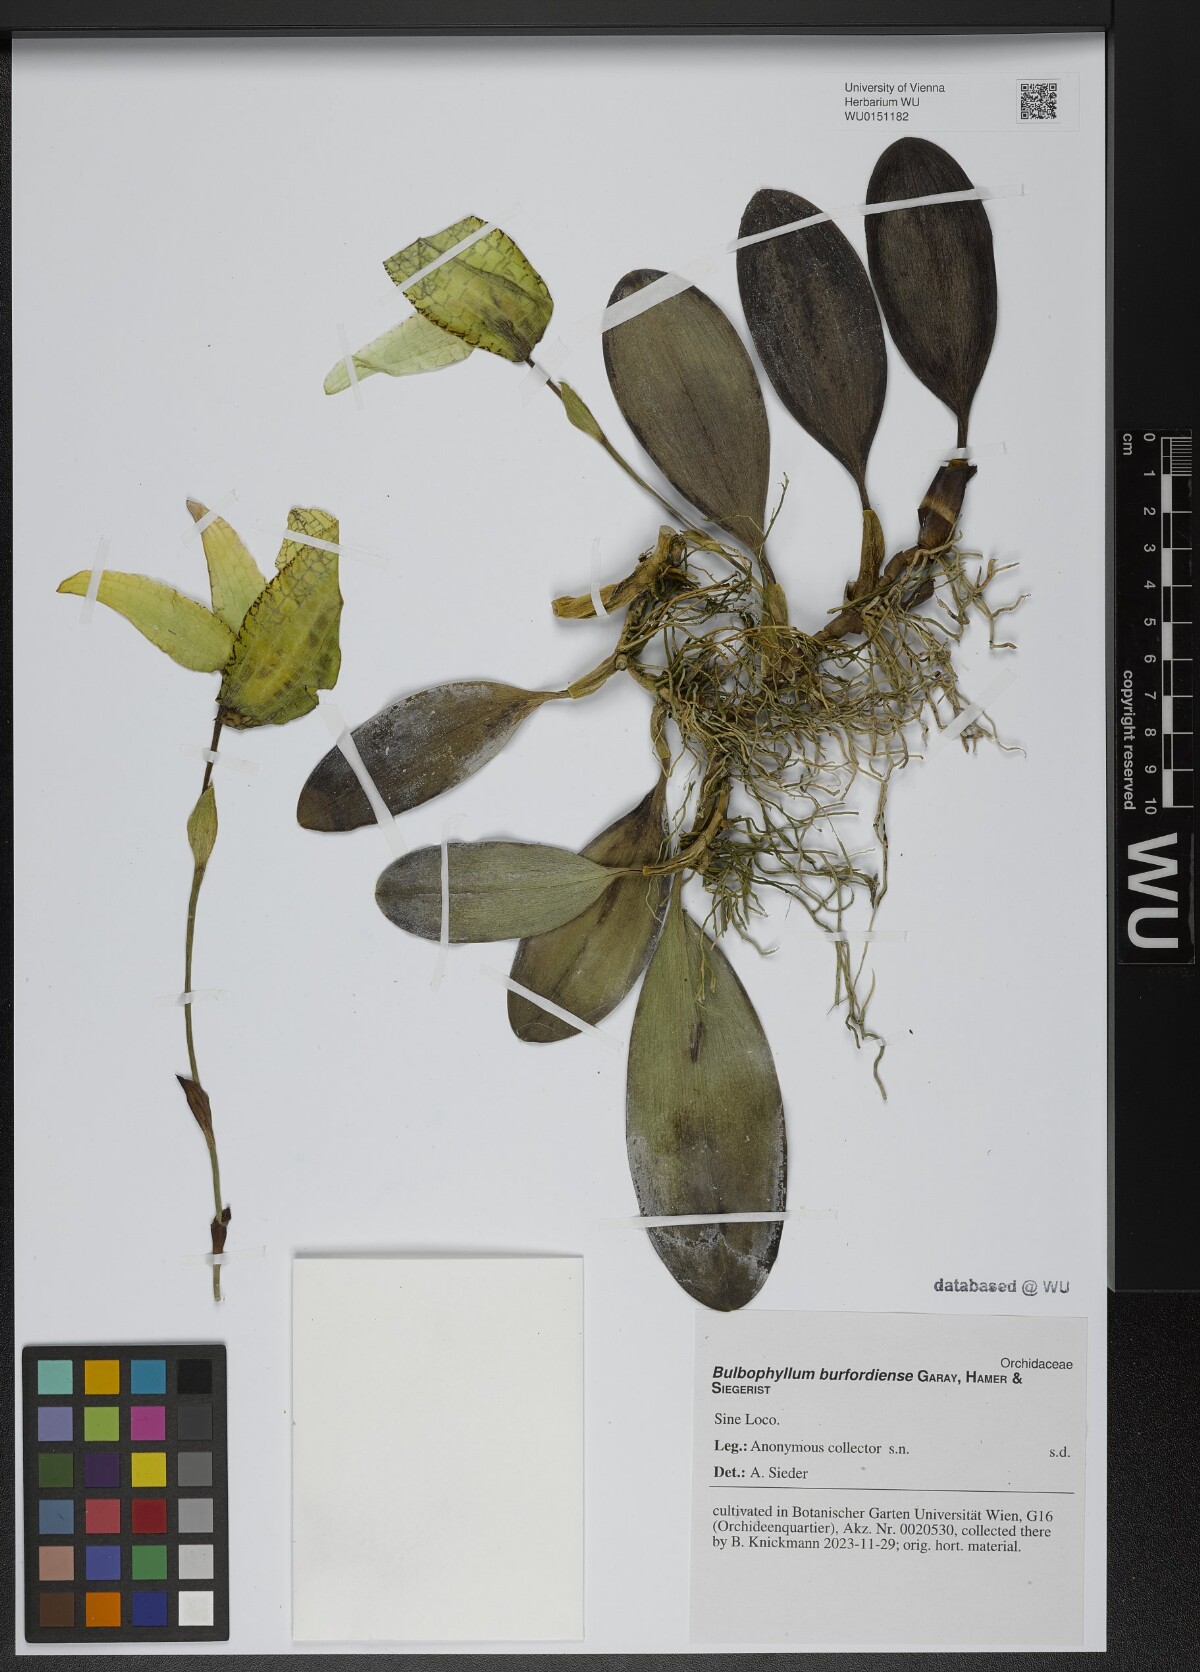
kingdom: Plantae
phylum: Tracheophyta
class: Liliopsida
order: Asparagales
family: Orchidaceae
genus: Bulbophyllum
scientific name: Bulbophyllum grandiflorum
